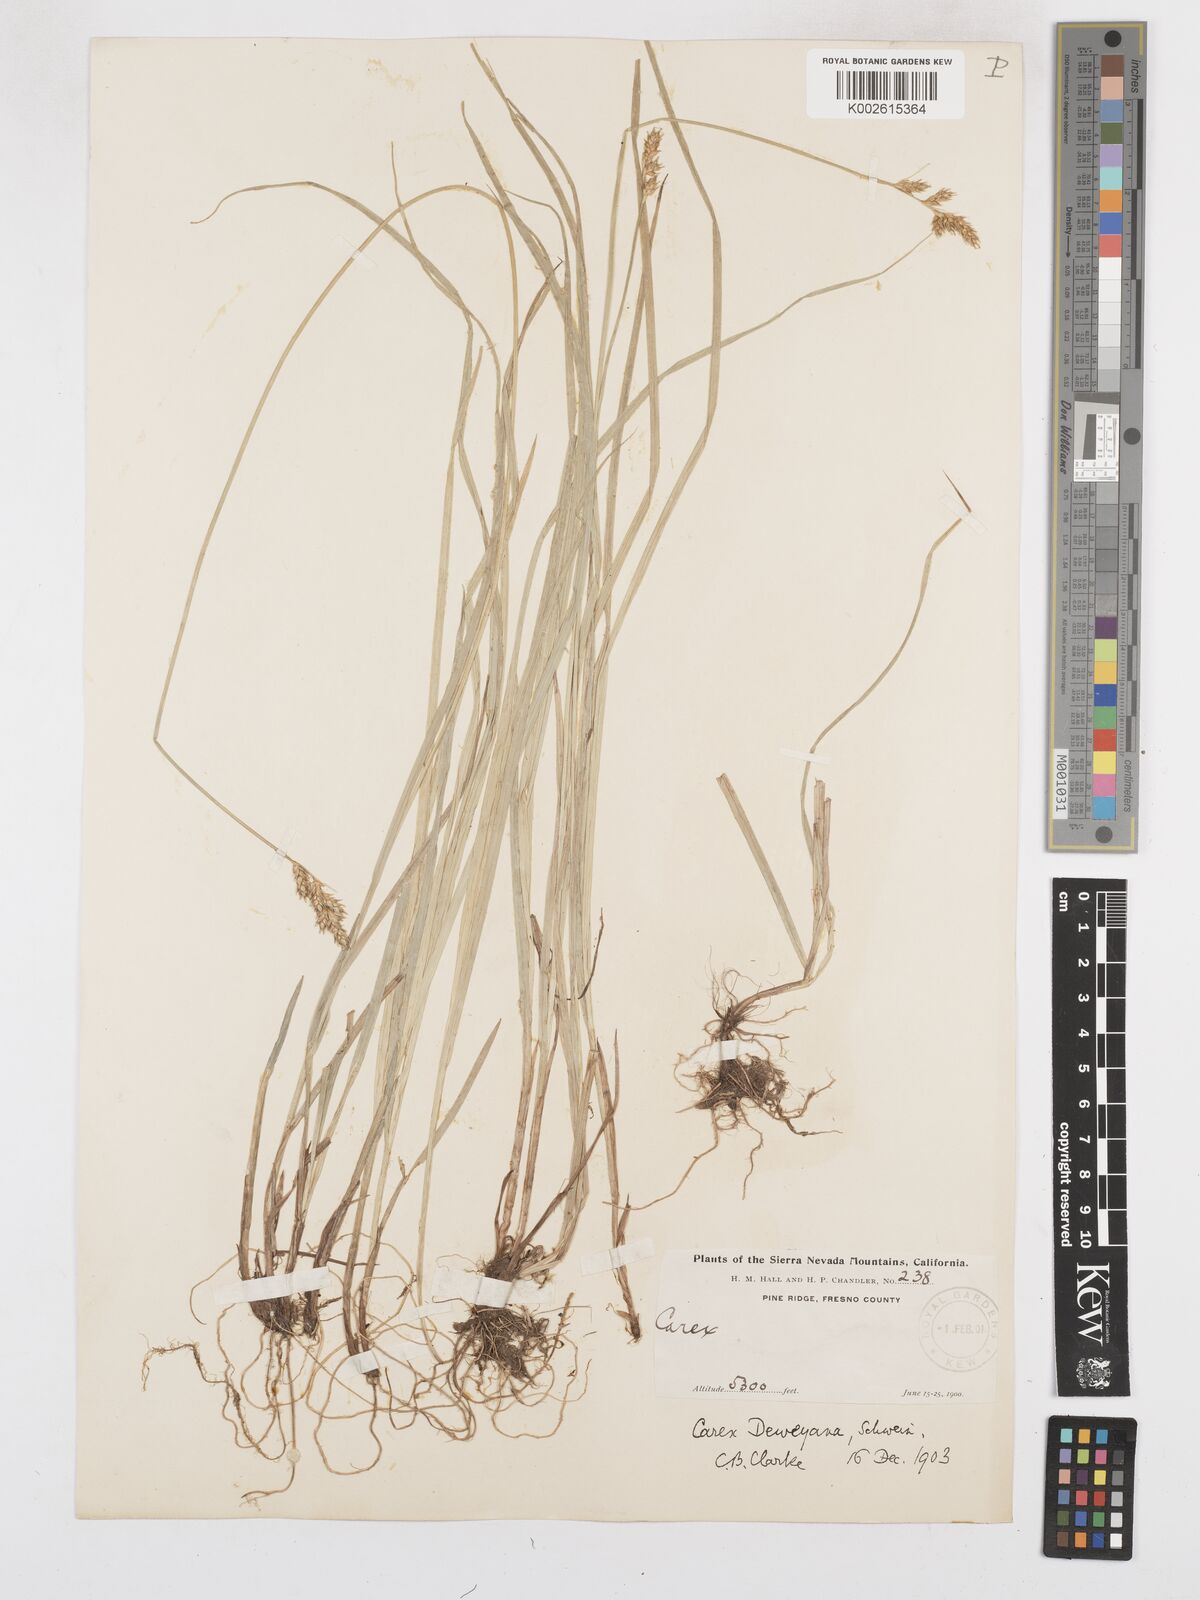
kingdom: Plantae
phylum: Tracheophyta
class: Liliopsida
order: Poales
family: Cyperaceae
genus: Carex
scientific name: Carex deweyana
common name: Dewey's sedge
